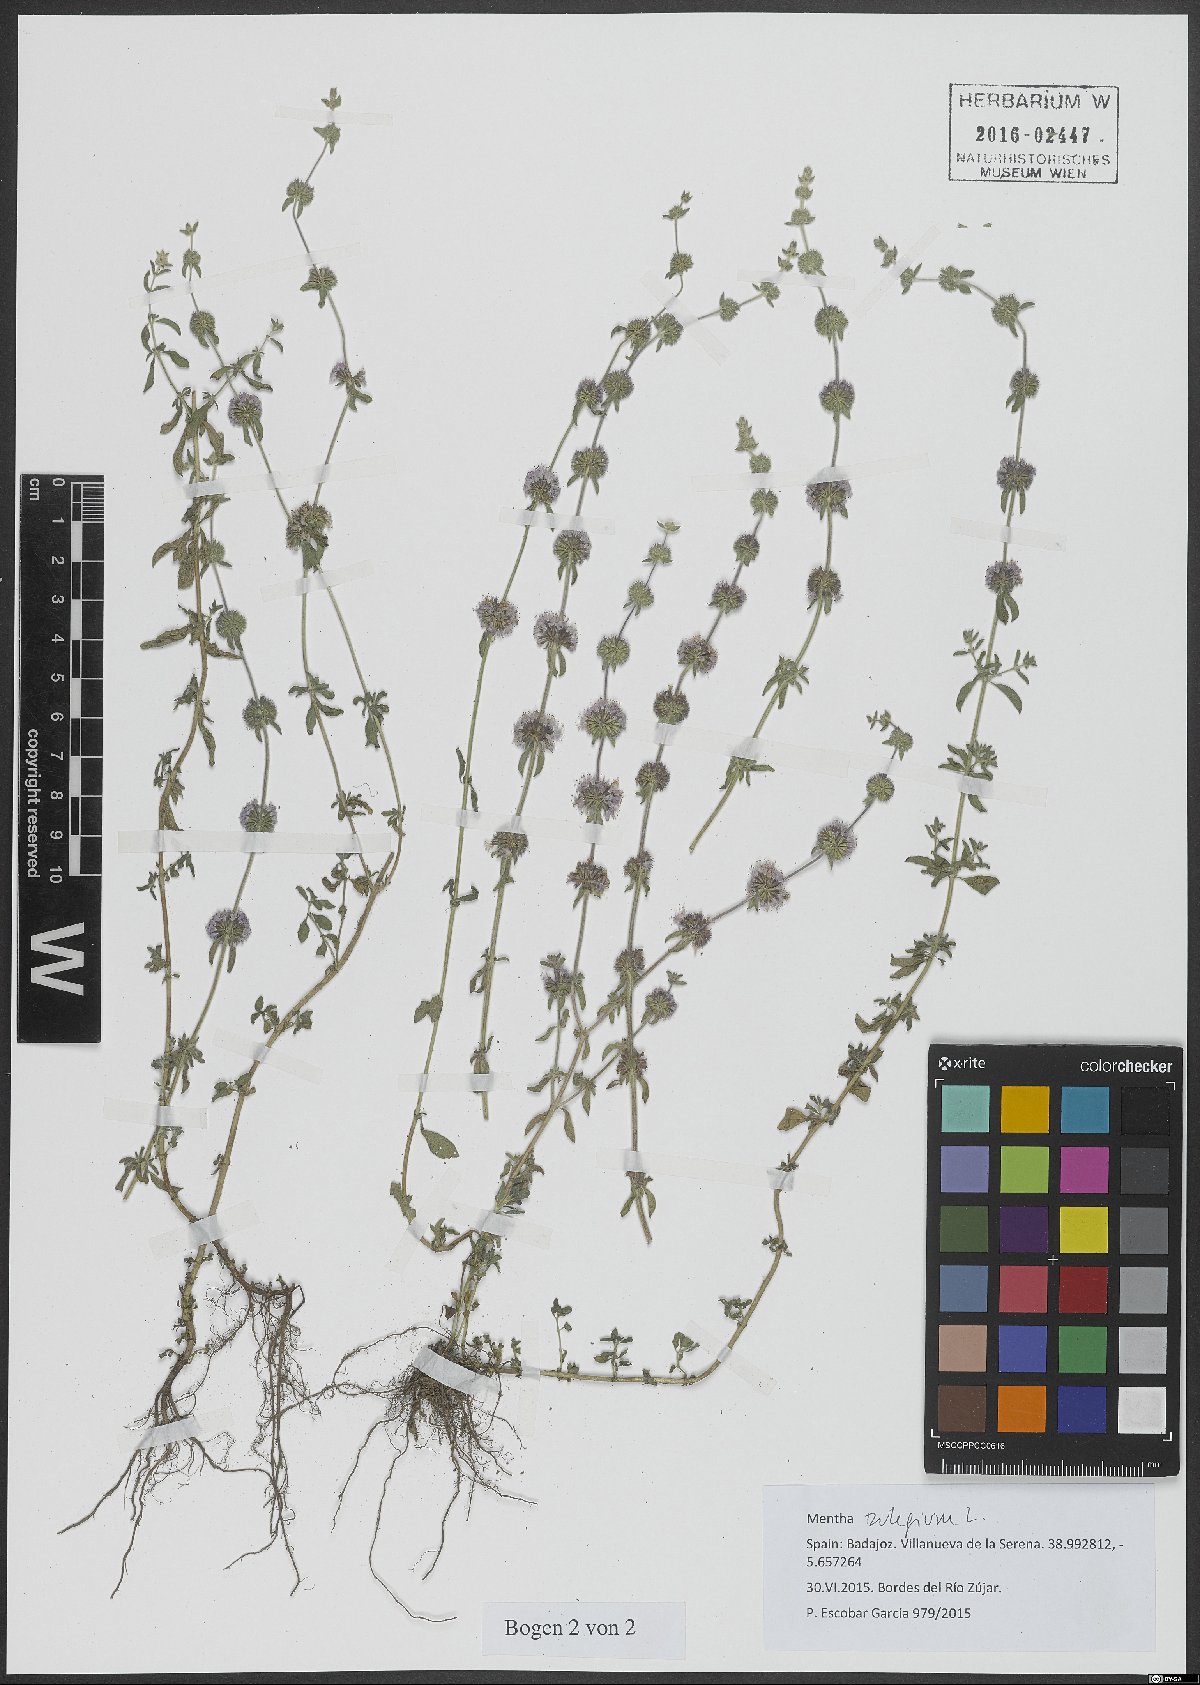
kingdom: Plantae
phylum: Tracheophyta
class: Magnoliopsida
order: Lamiales
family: Lamiaceae
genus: Mentha
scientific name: Mentha pulegium
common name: Pennyroyal
